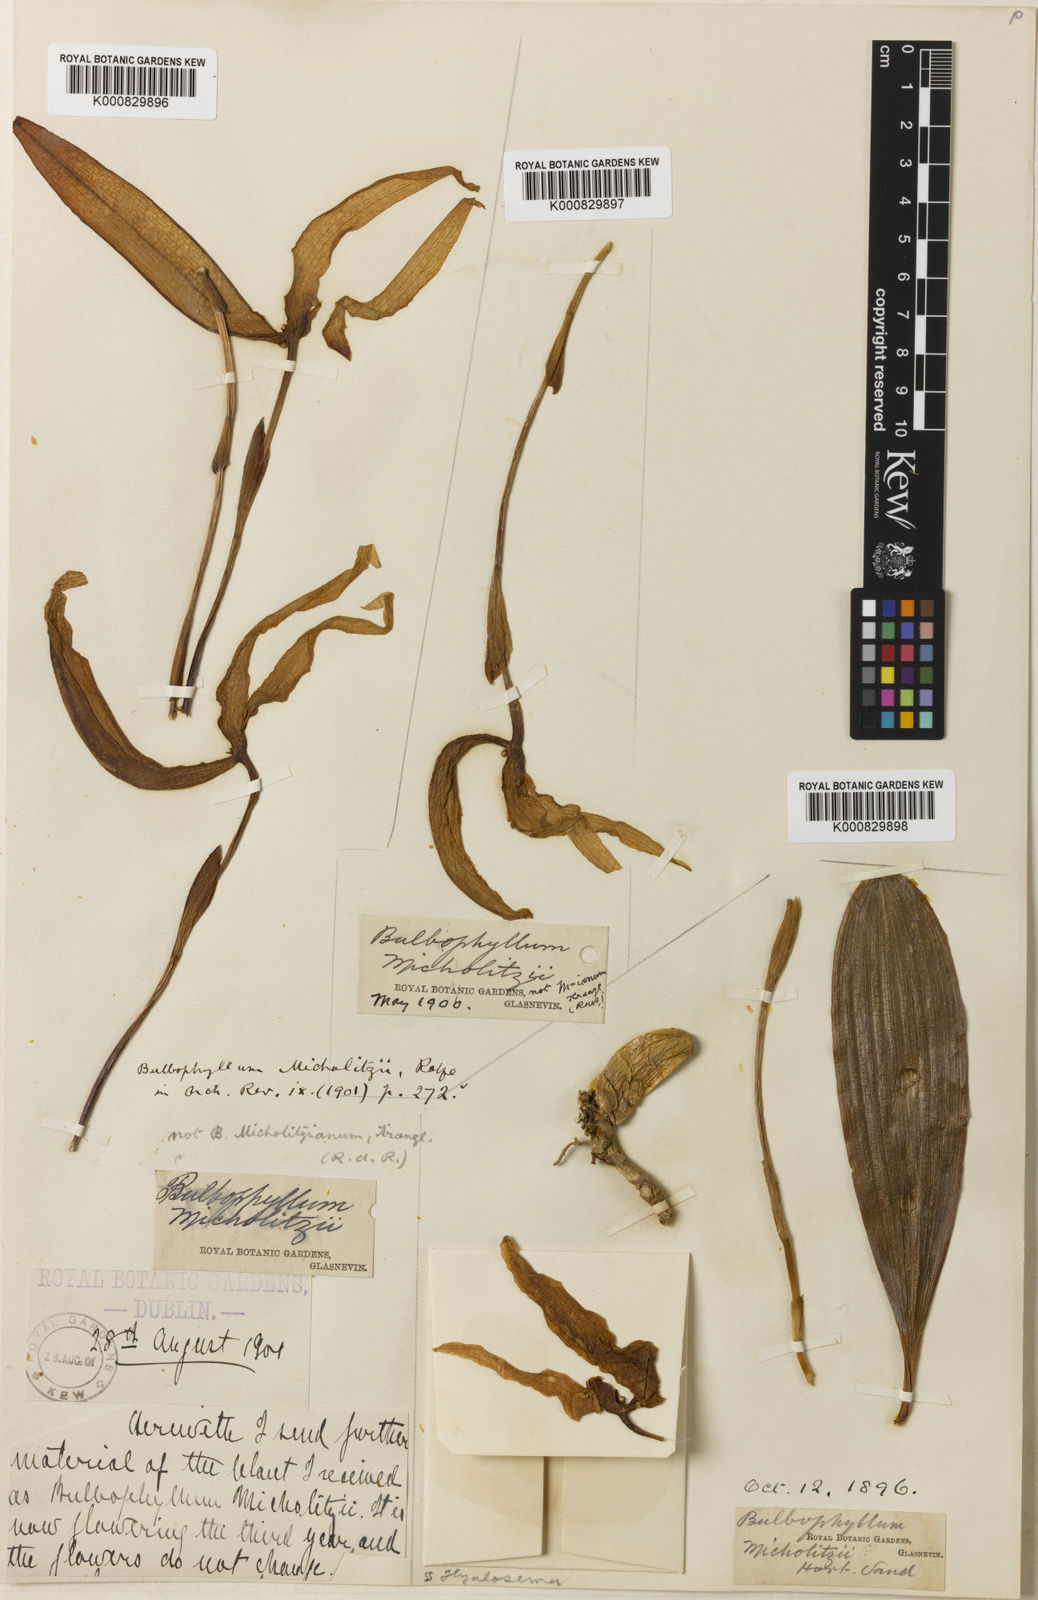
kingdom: Plantae
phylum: Tracheophyta
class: Liliopsida
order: Asparagales
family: Orchidaceae
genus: Bulbophyllum
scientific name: Bulbophyllum grandiflorum
